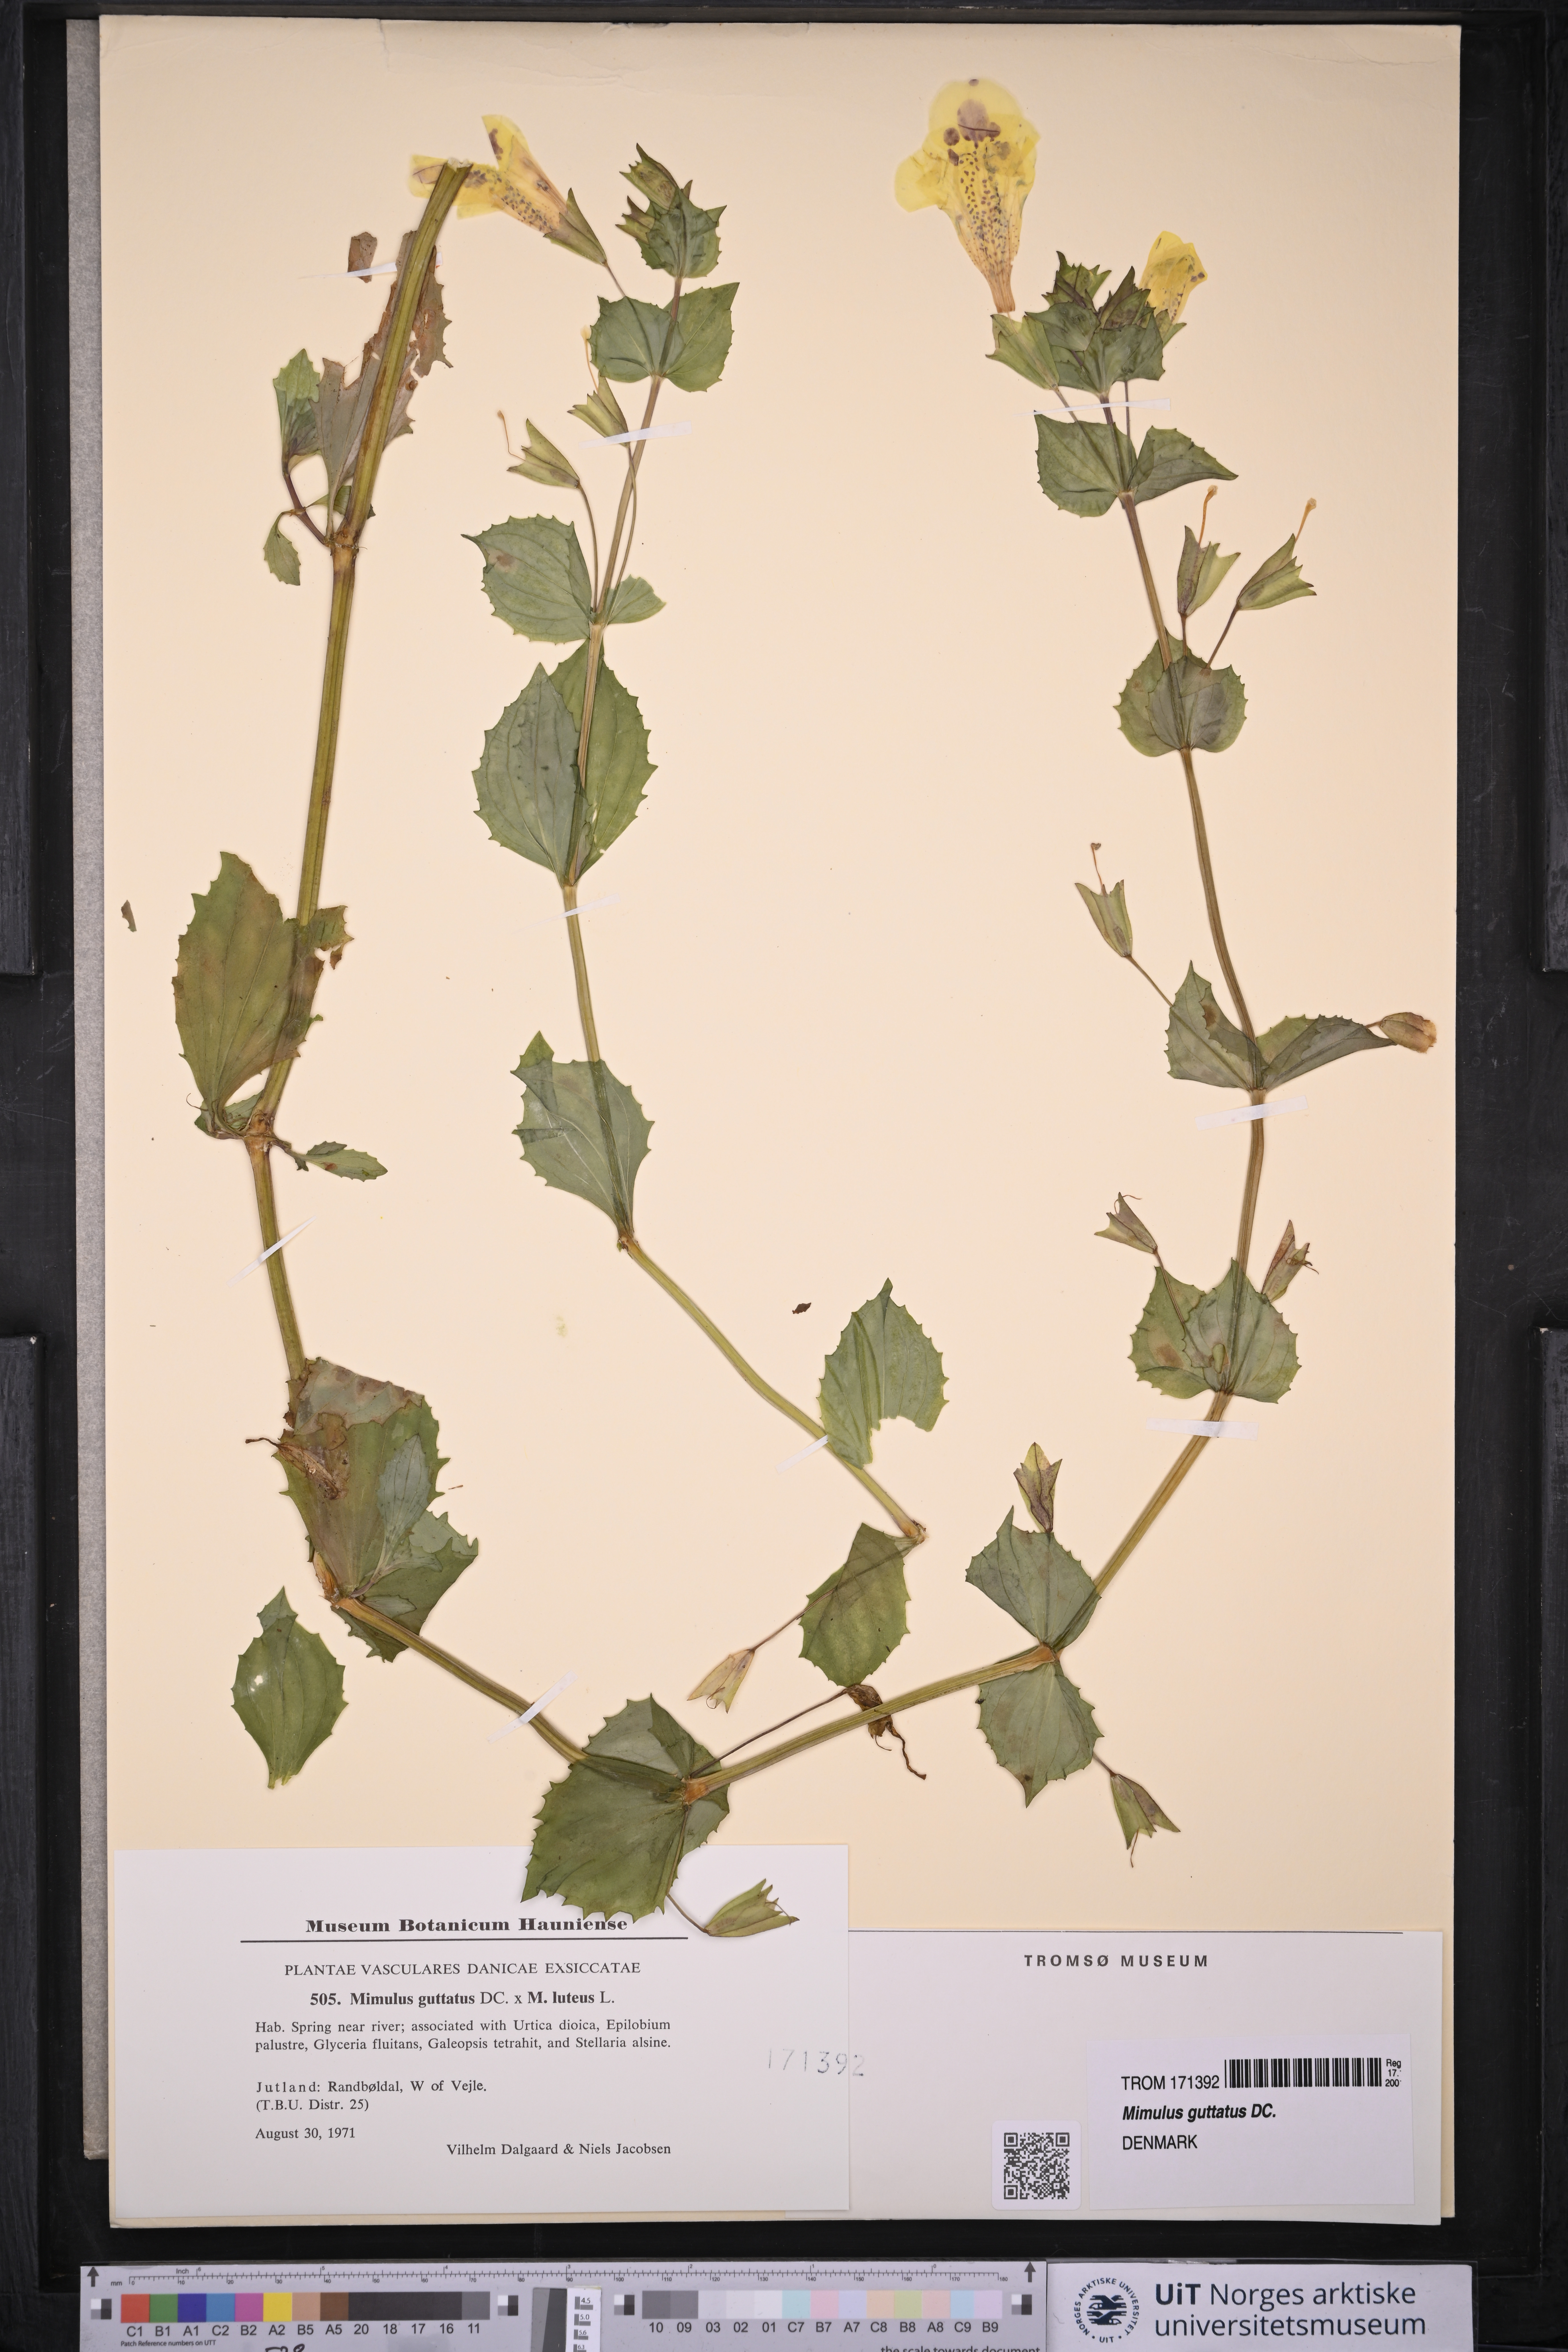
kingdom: Plantae
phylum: Tracheophyta
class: Magnoliopsida
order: Lamiales
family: Phrymaceae
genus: Erythranthe
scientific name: Erythranthe guttata
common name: Monkeyflower
